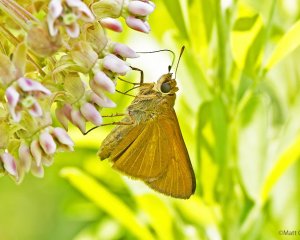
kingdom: Animalia
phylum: Arthropoda
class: Insecta
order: Lepidoptera
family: Hesperiidae
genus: Euphyes
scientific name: Euphyes dion
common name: Dion Skipper
